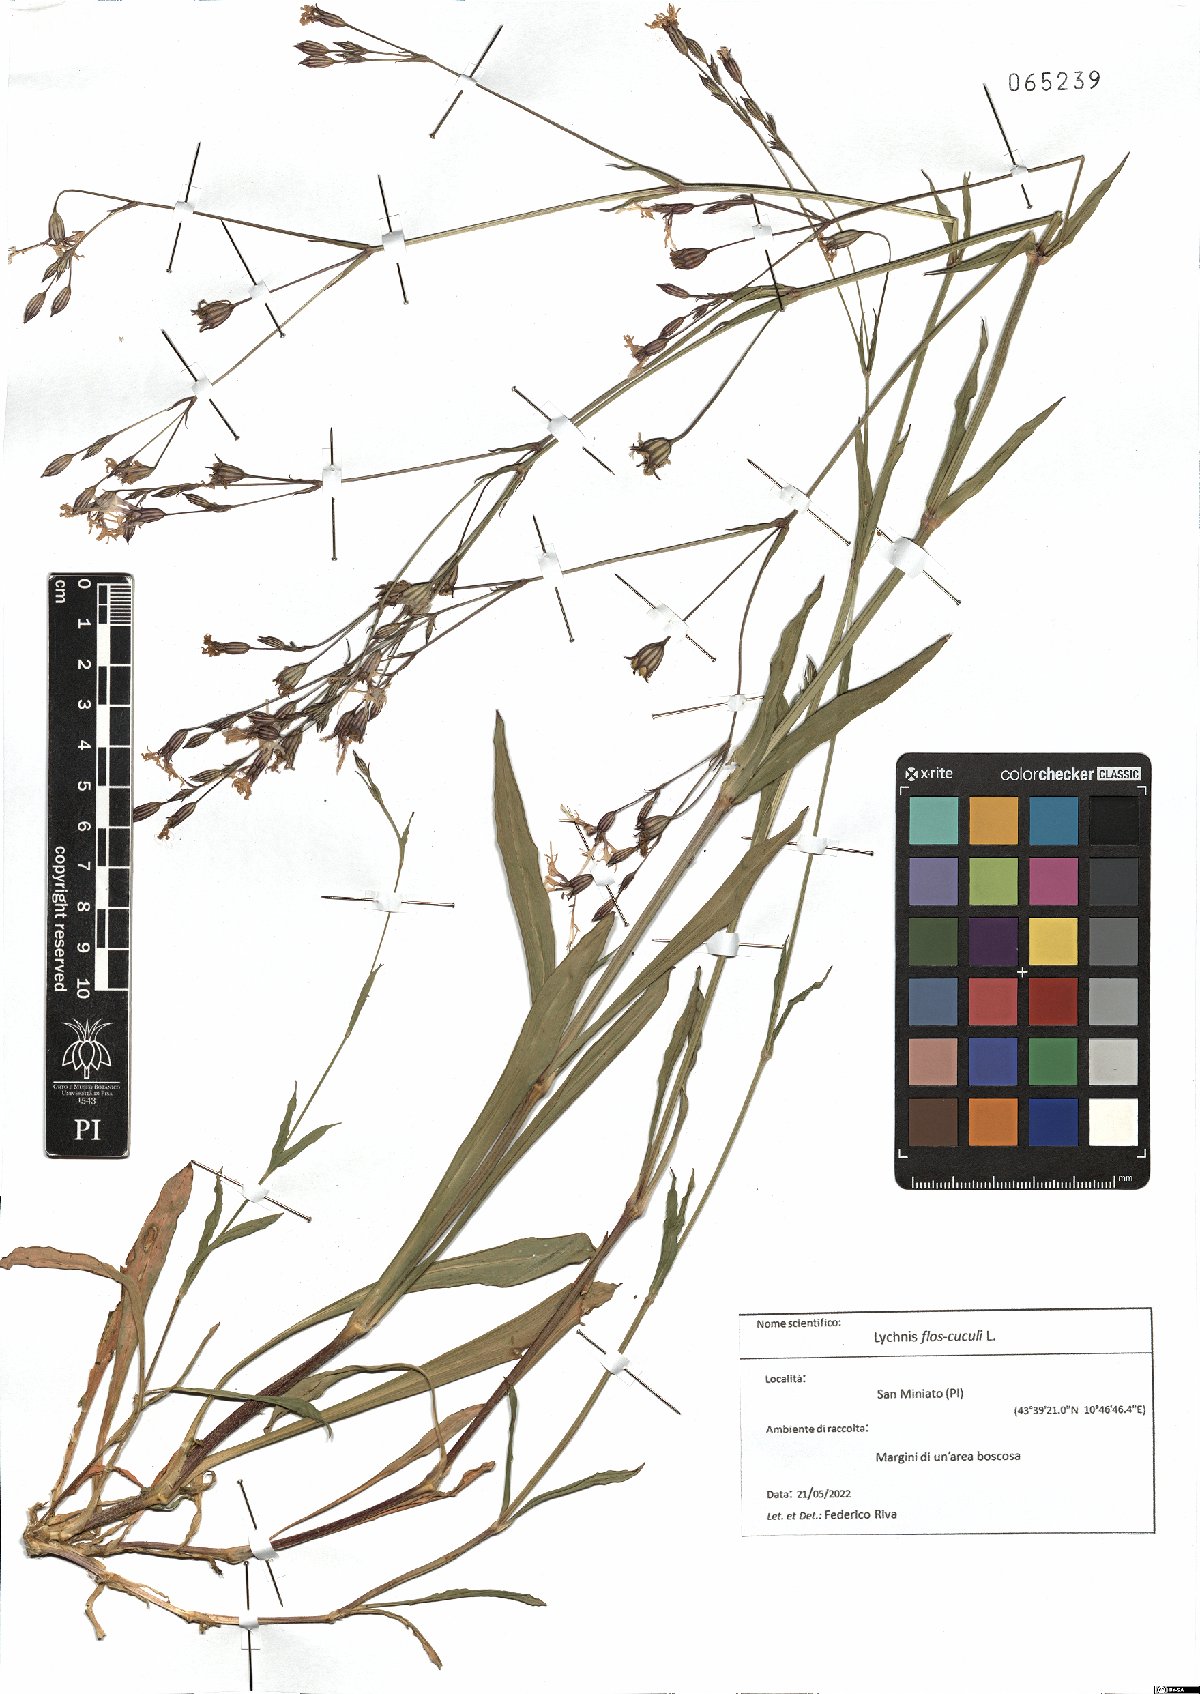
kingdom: Plantae
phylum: Tracheophyta
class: Magnoliopsida
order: Caryophyllales
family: Caryophyllaceae
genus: Silene
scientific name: Silene flos-cuculi
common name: Ragged-robin
